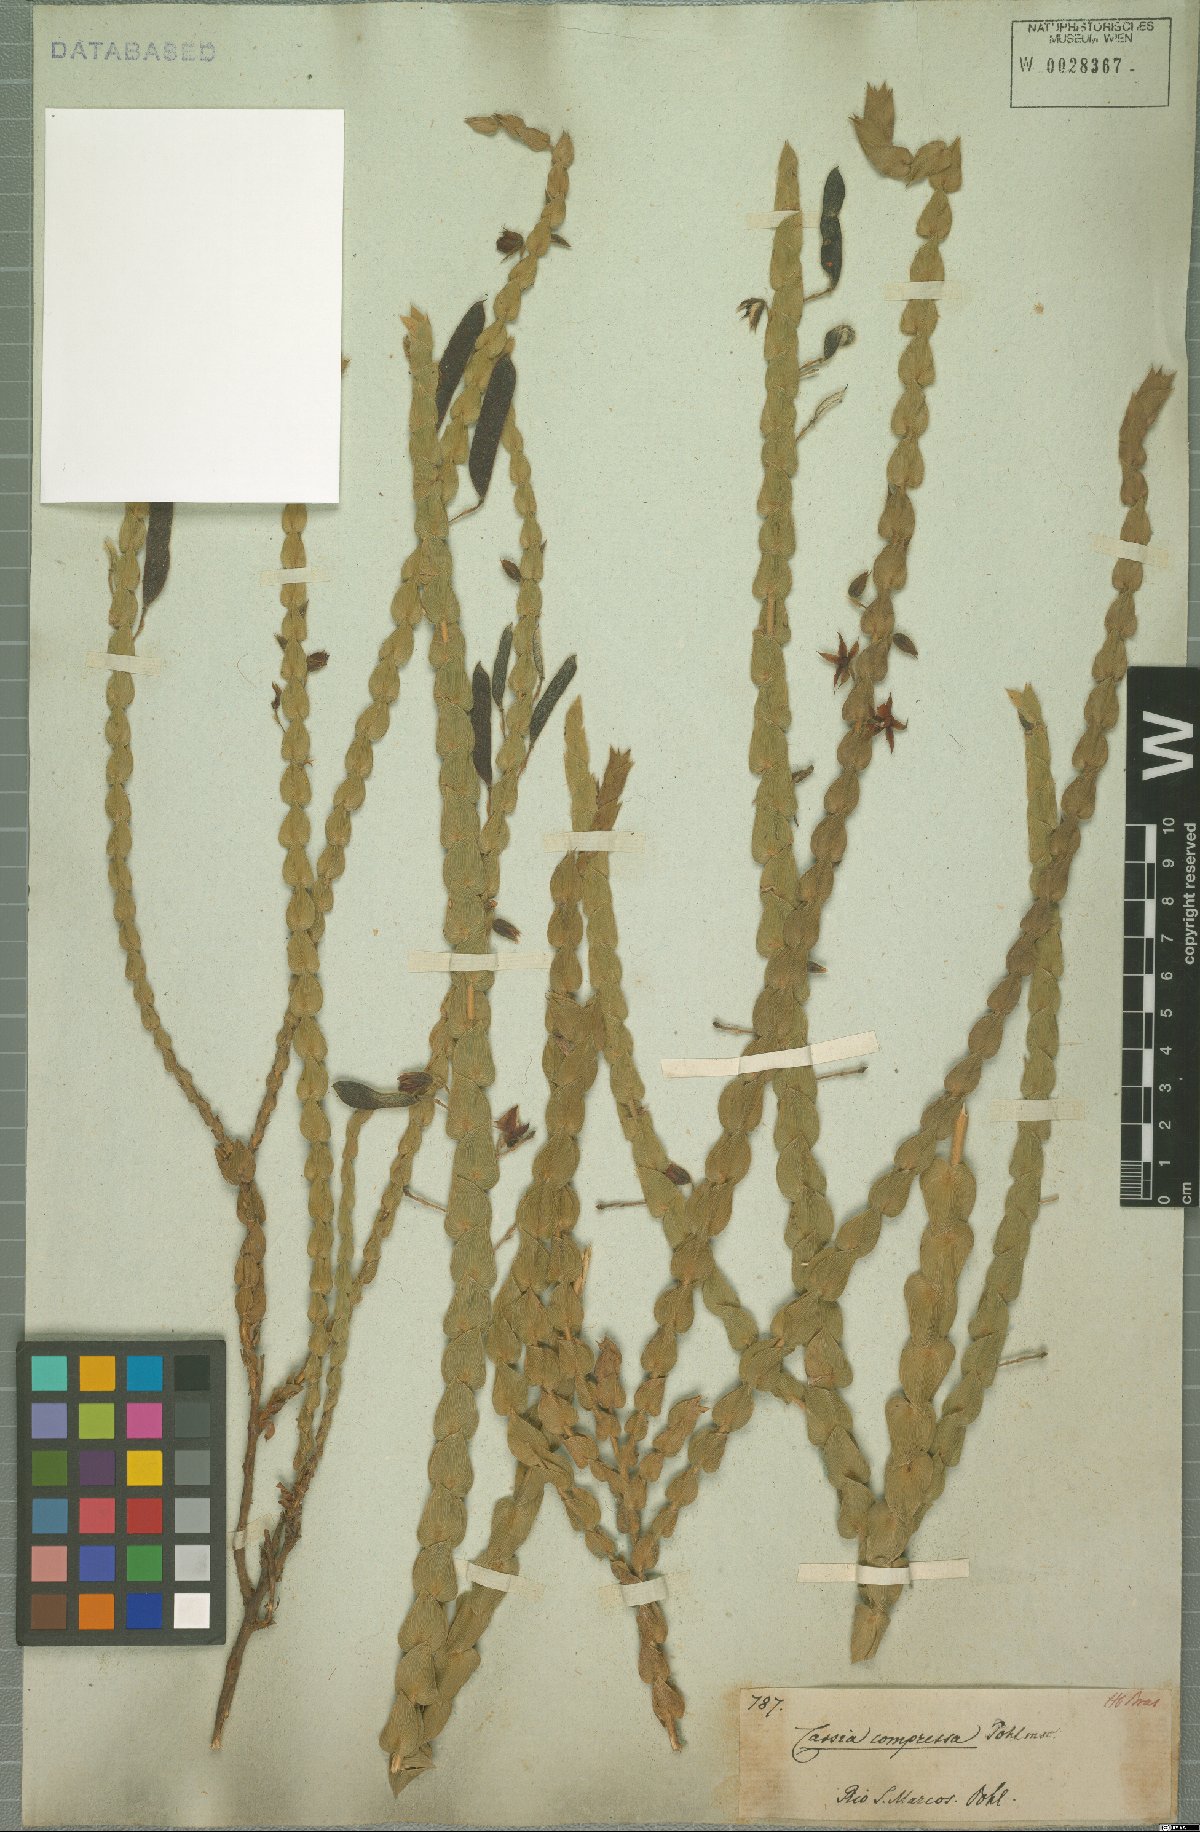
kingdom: Plantae
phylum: Tracheophyta
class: Magnoliopsida
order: Fabales
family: Fabaceae
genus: Cassia
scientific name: Cassia
